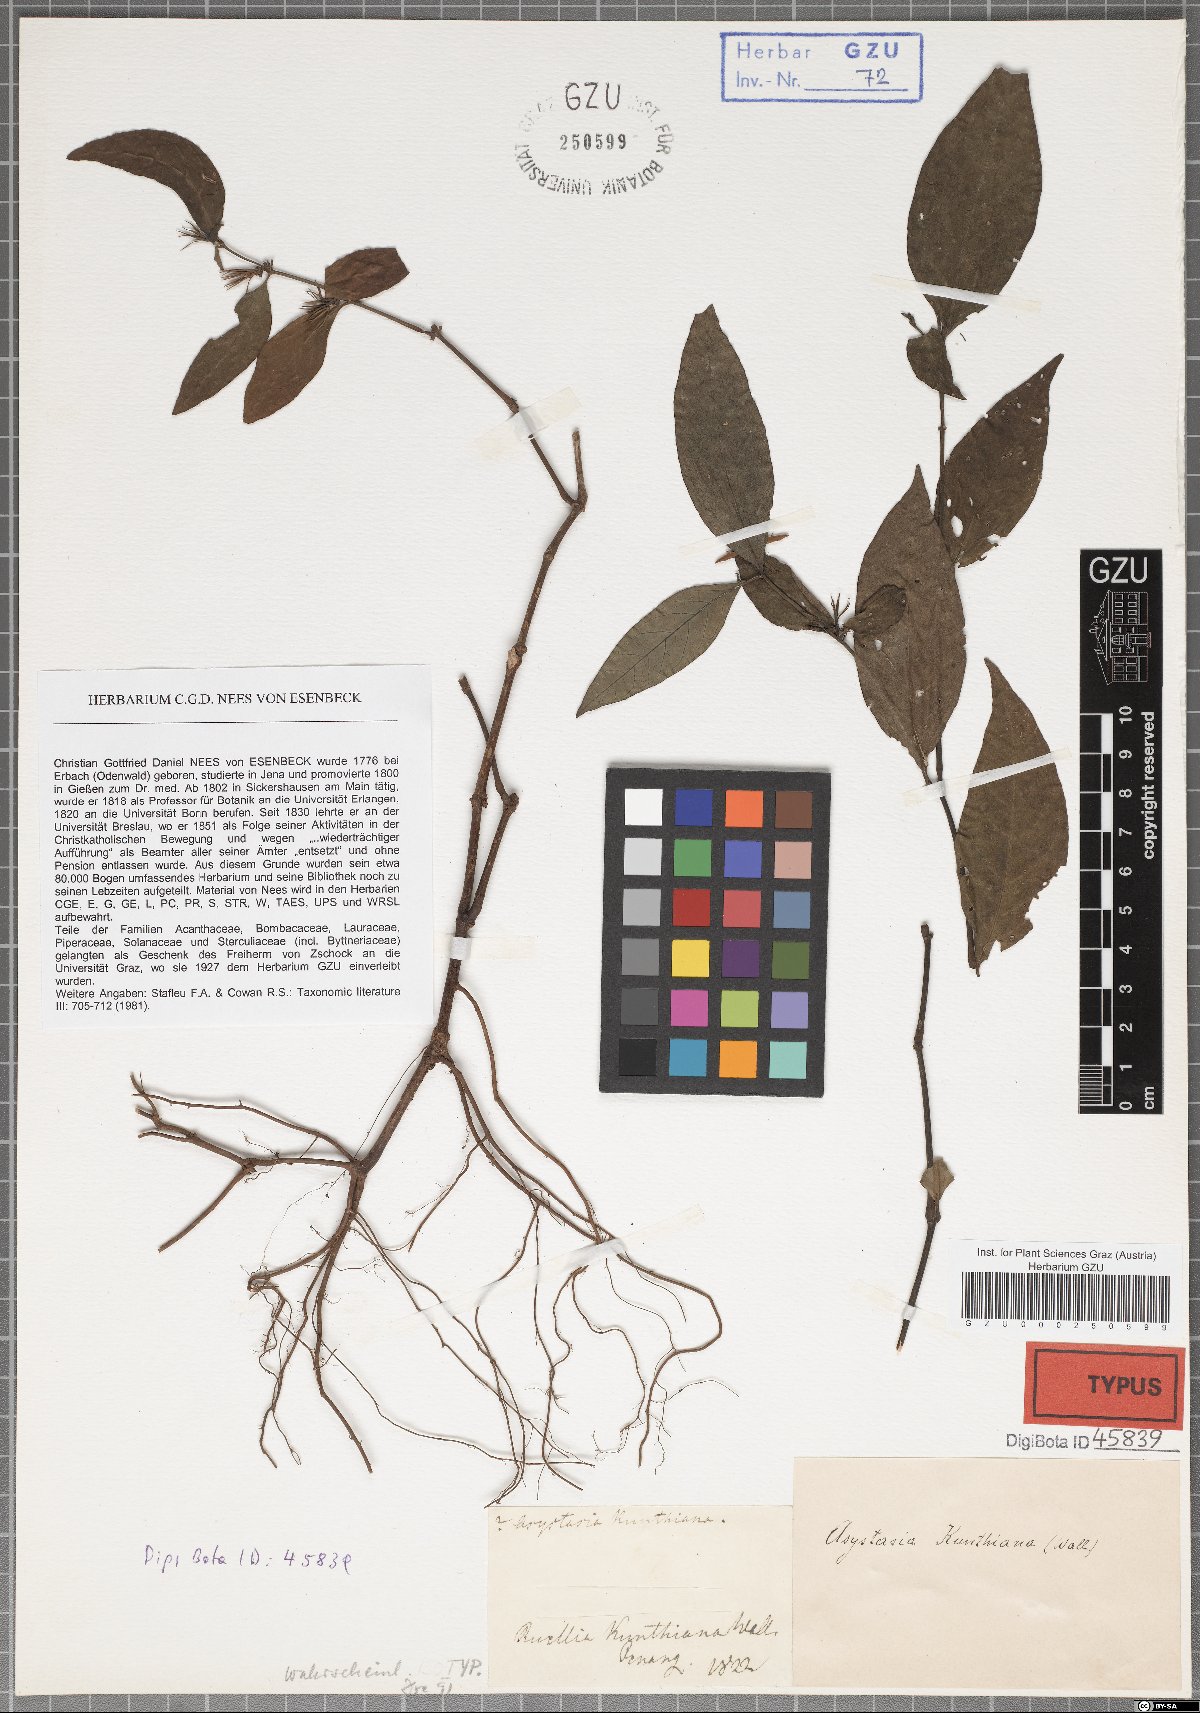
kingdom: Plantae
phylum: Tracheophyta
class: Magnoliopsida
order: Lamiales
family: Acanthaceae
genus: Ptyssiglottis
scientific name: Ptyssiglottis kunthiana
